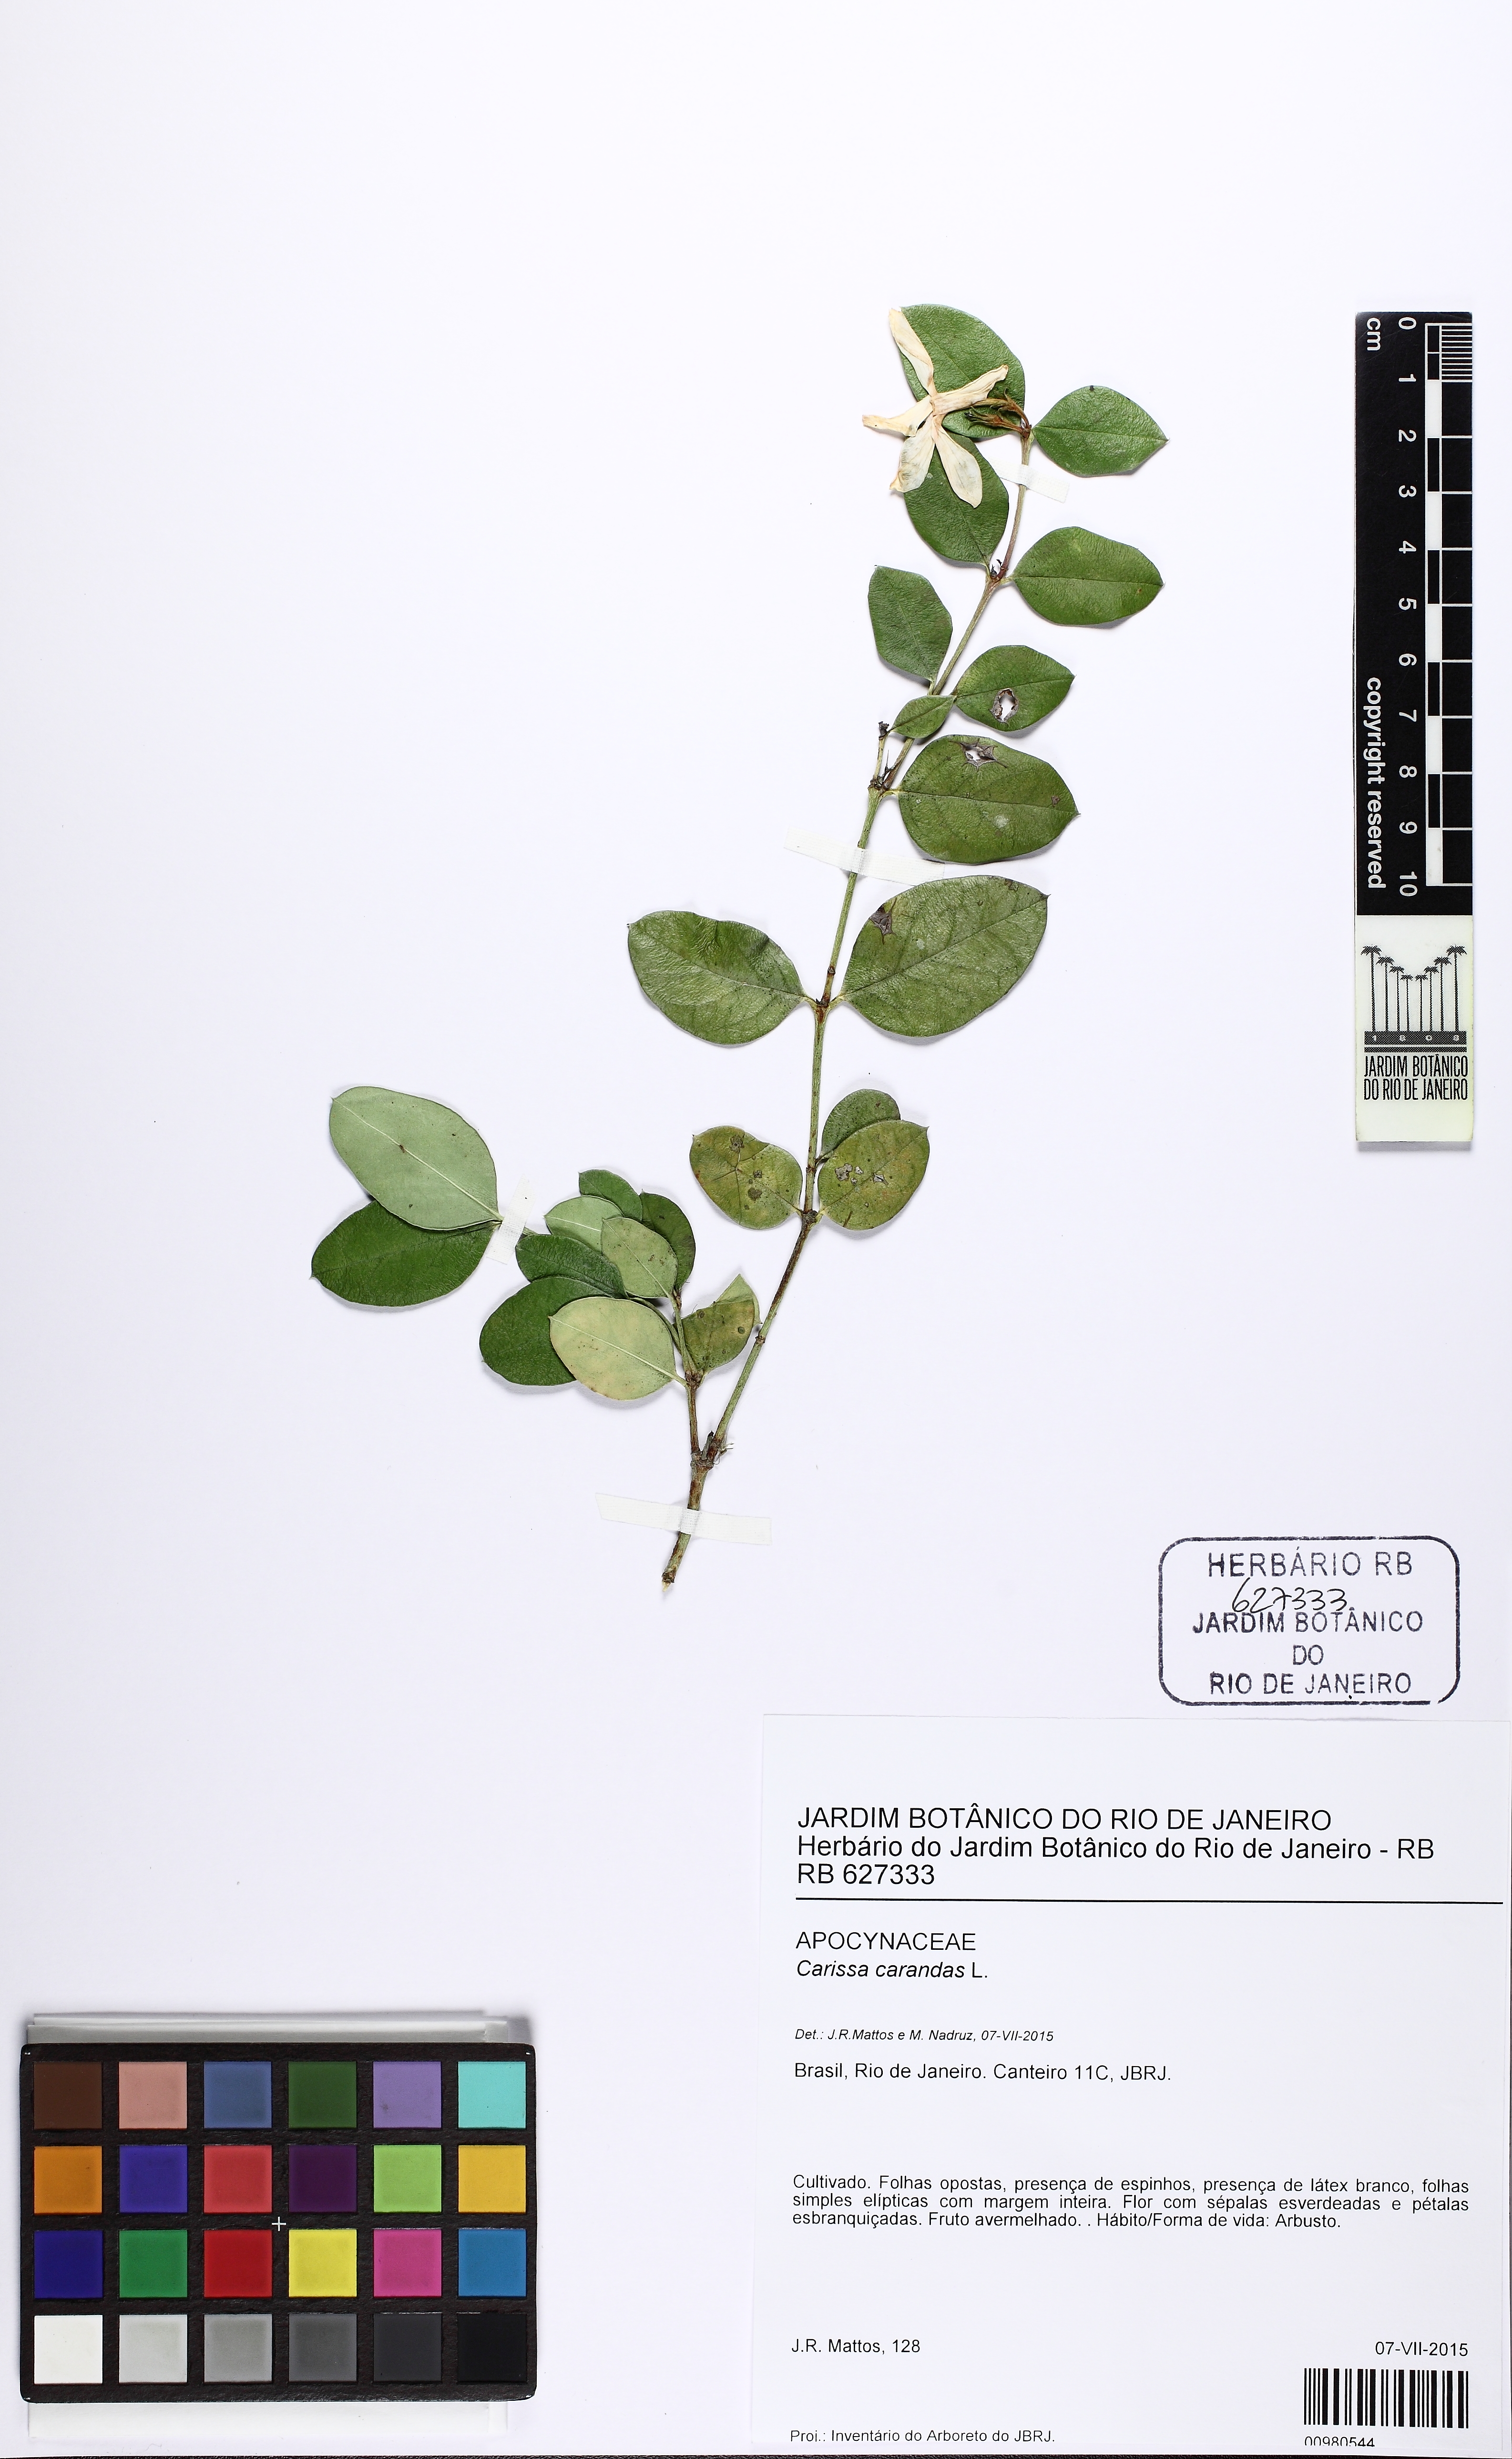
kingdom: Plantae
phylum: Tracheophyta
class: Magnoliopsida
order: Gentianales
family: Apocynaceae
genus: Carissa
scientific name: Carissa carandas
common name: Karanda
